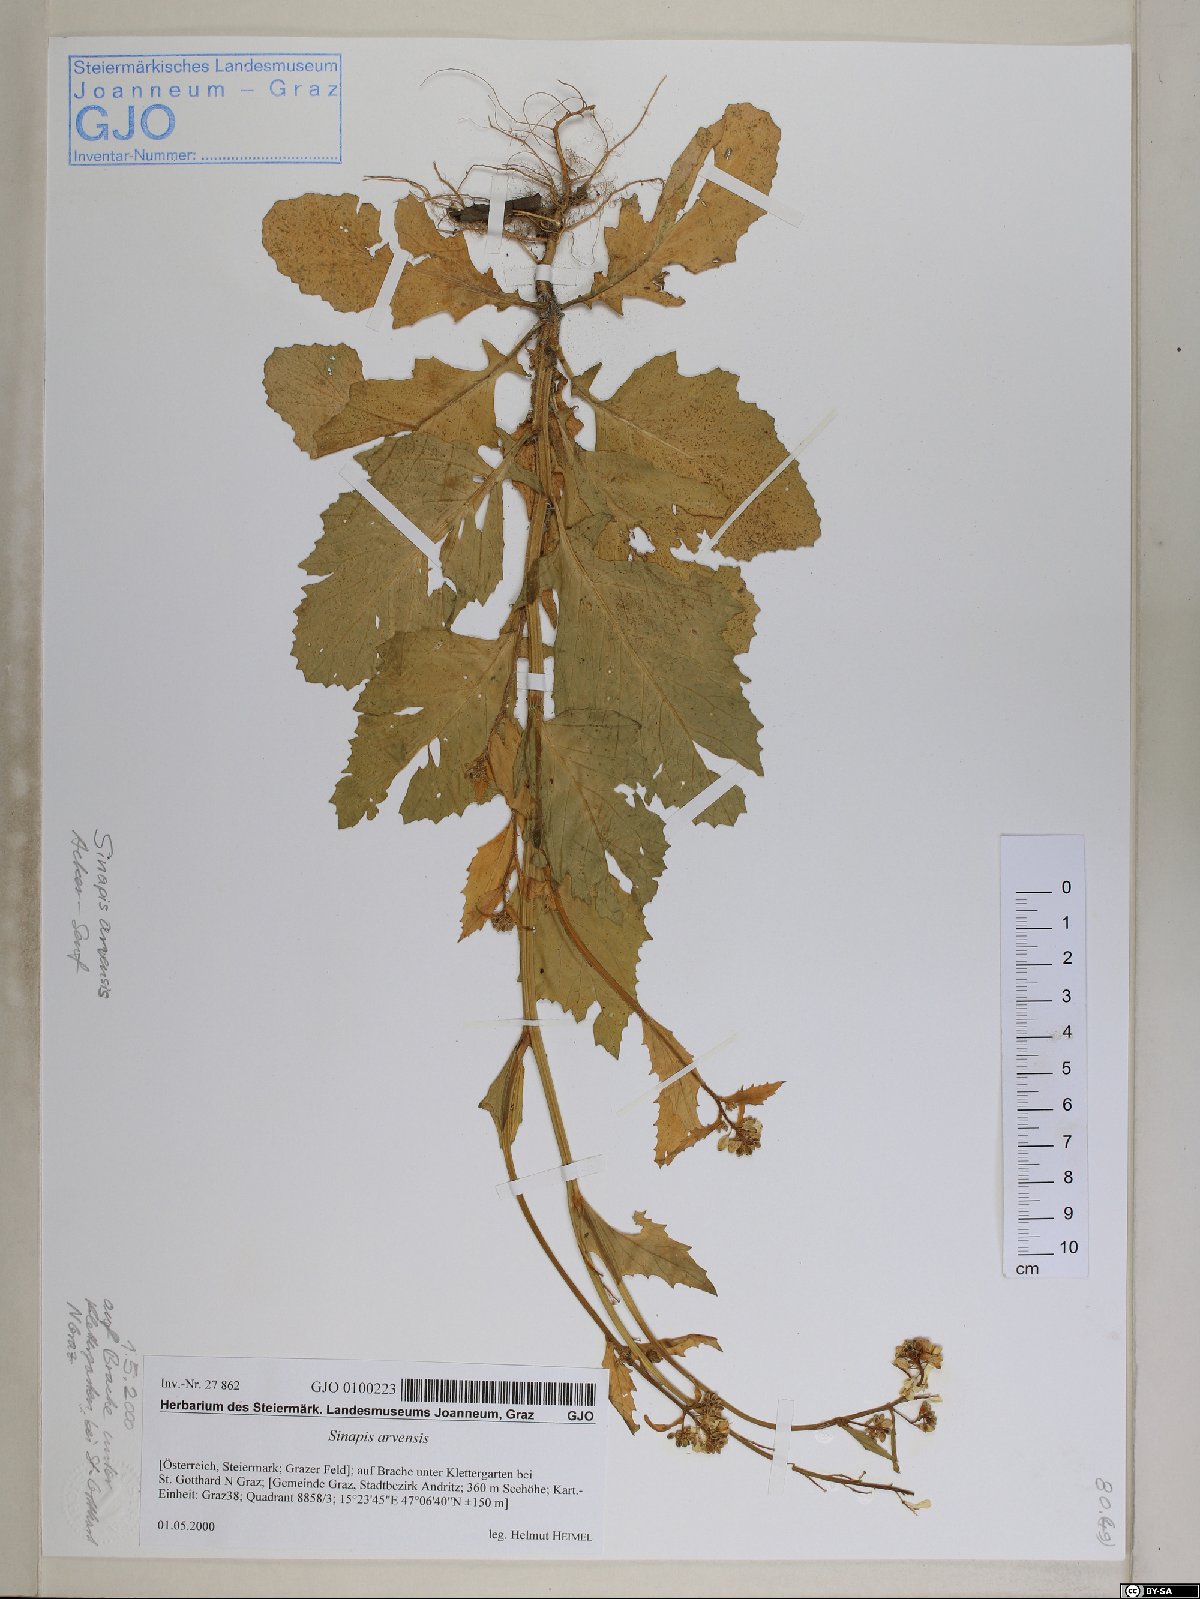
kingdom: Plantae
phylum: Tracheophyta
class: Magnoliopsida
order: Brassicales
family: Brassicaceae
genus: Sinapis
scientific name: Sinapis arvensis
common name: Charlock
